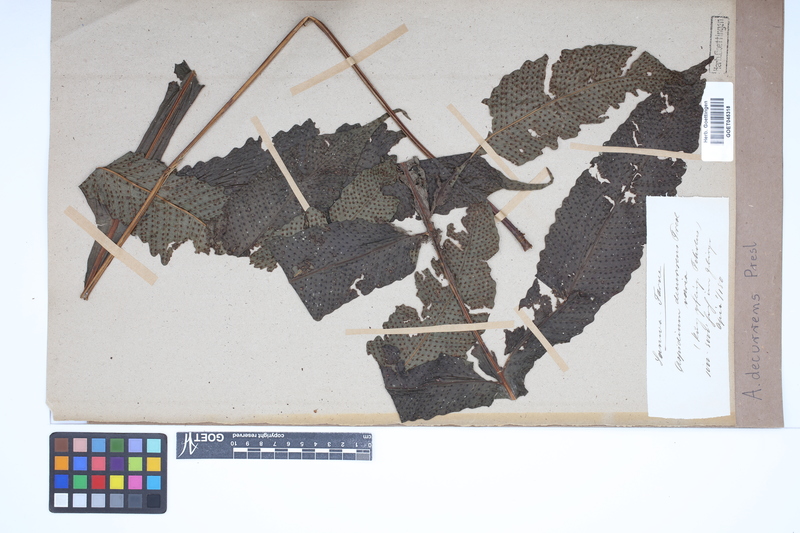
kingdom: Plantae
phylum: Tracheophyta
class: Polypodiopsida
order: Polypodiales
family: Tectariaceae
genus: Tectaria
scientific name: Tectaria decurrens
